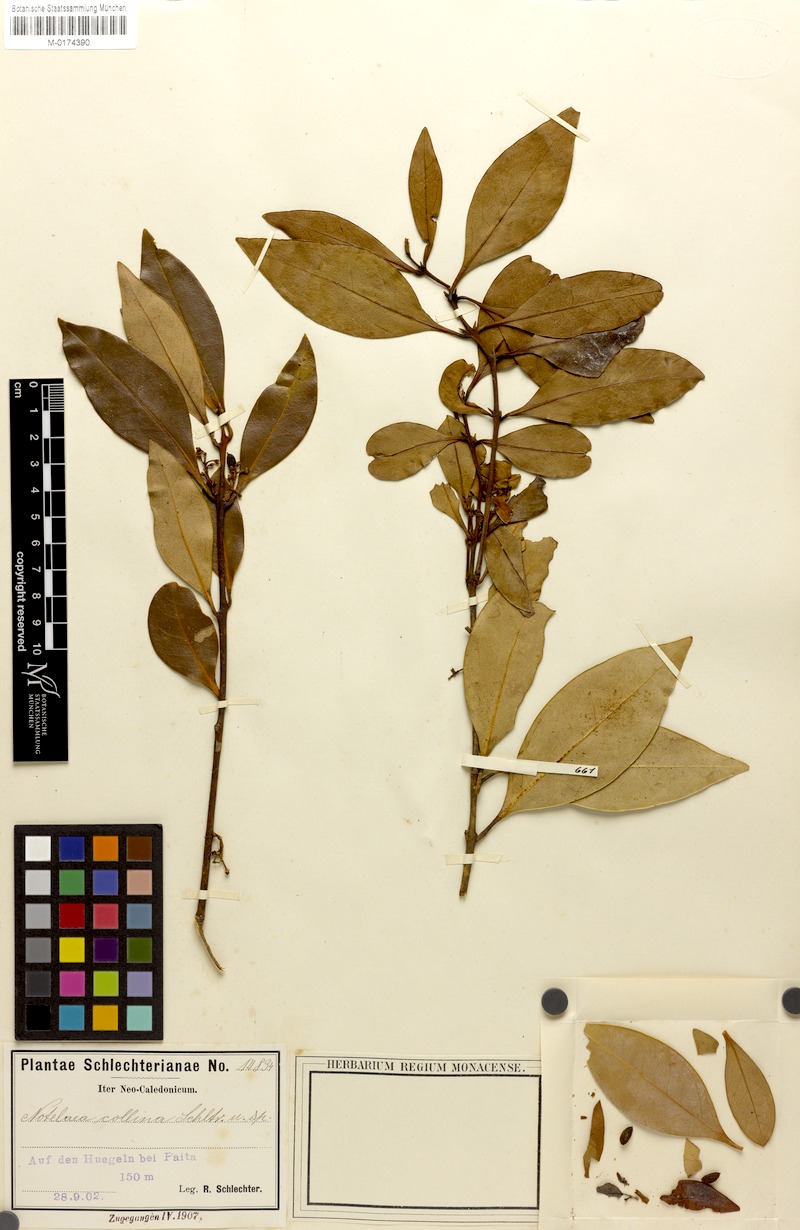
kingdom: Plantae
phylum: Tracheophyta
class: Magnoliopsida
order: Lamiales
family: Oleaceae
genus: Osmanthus
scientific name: Osmanthus austrocaledonicus
